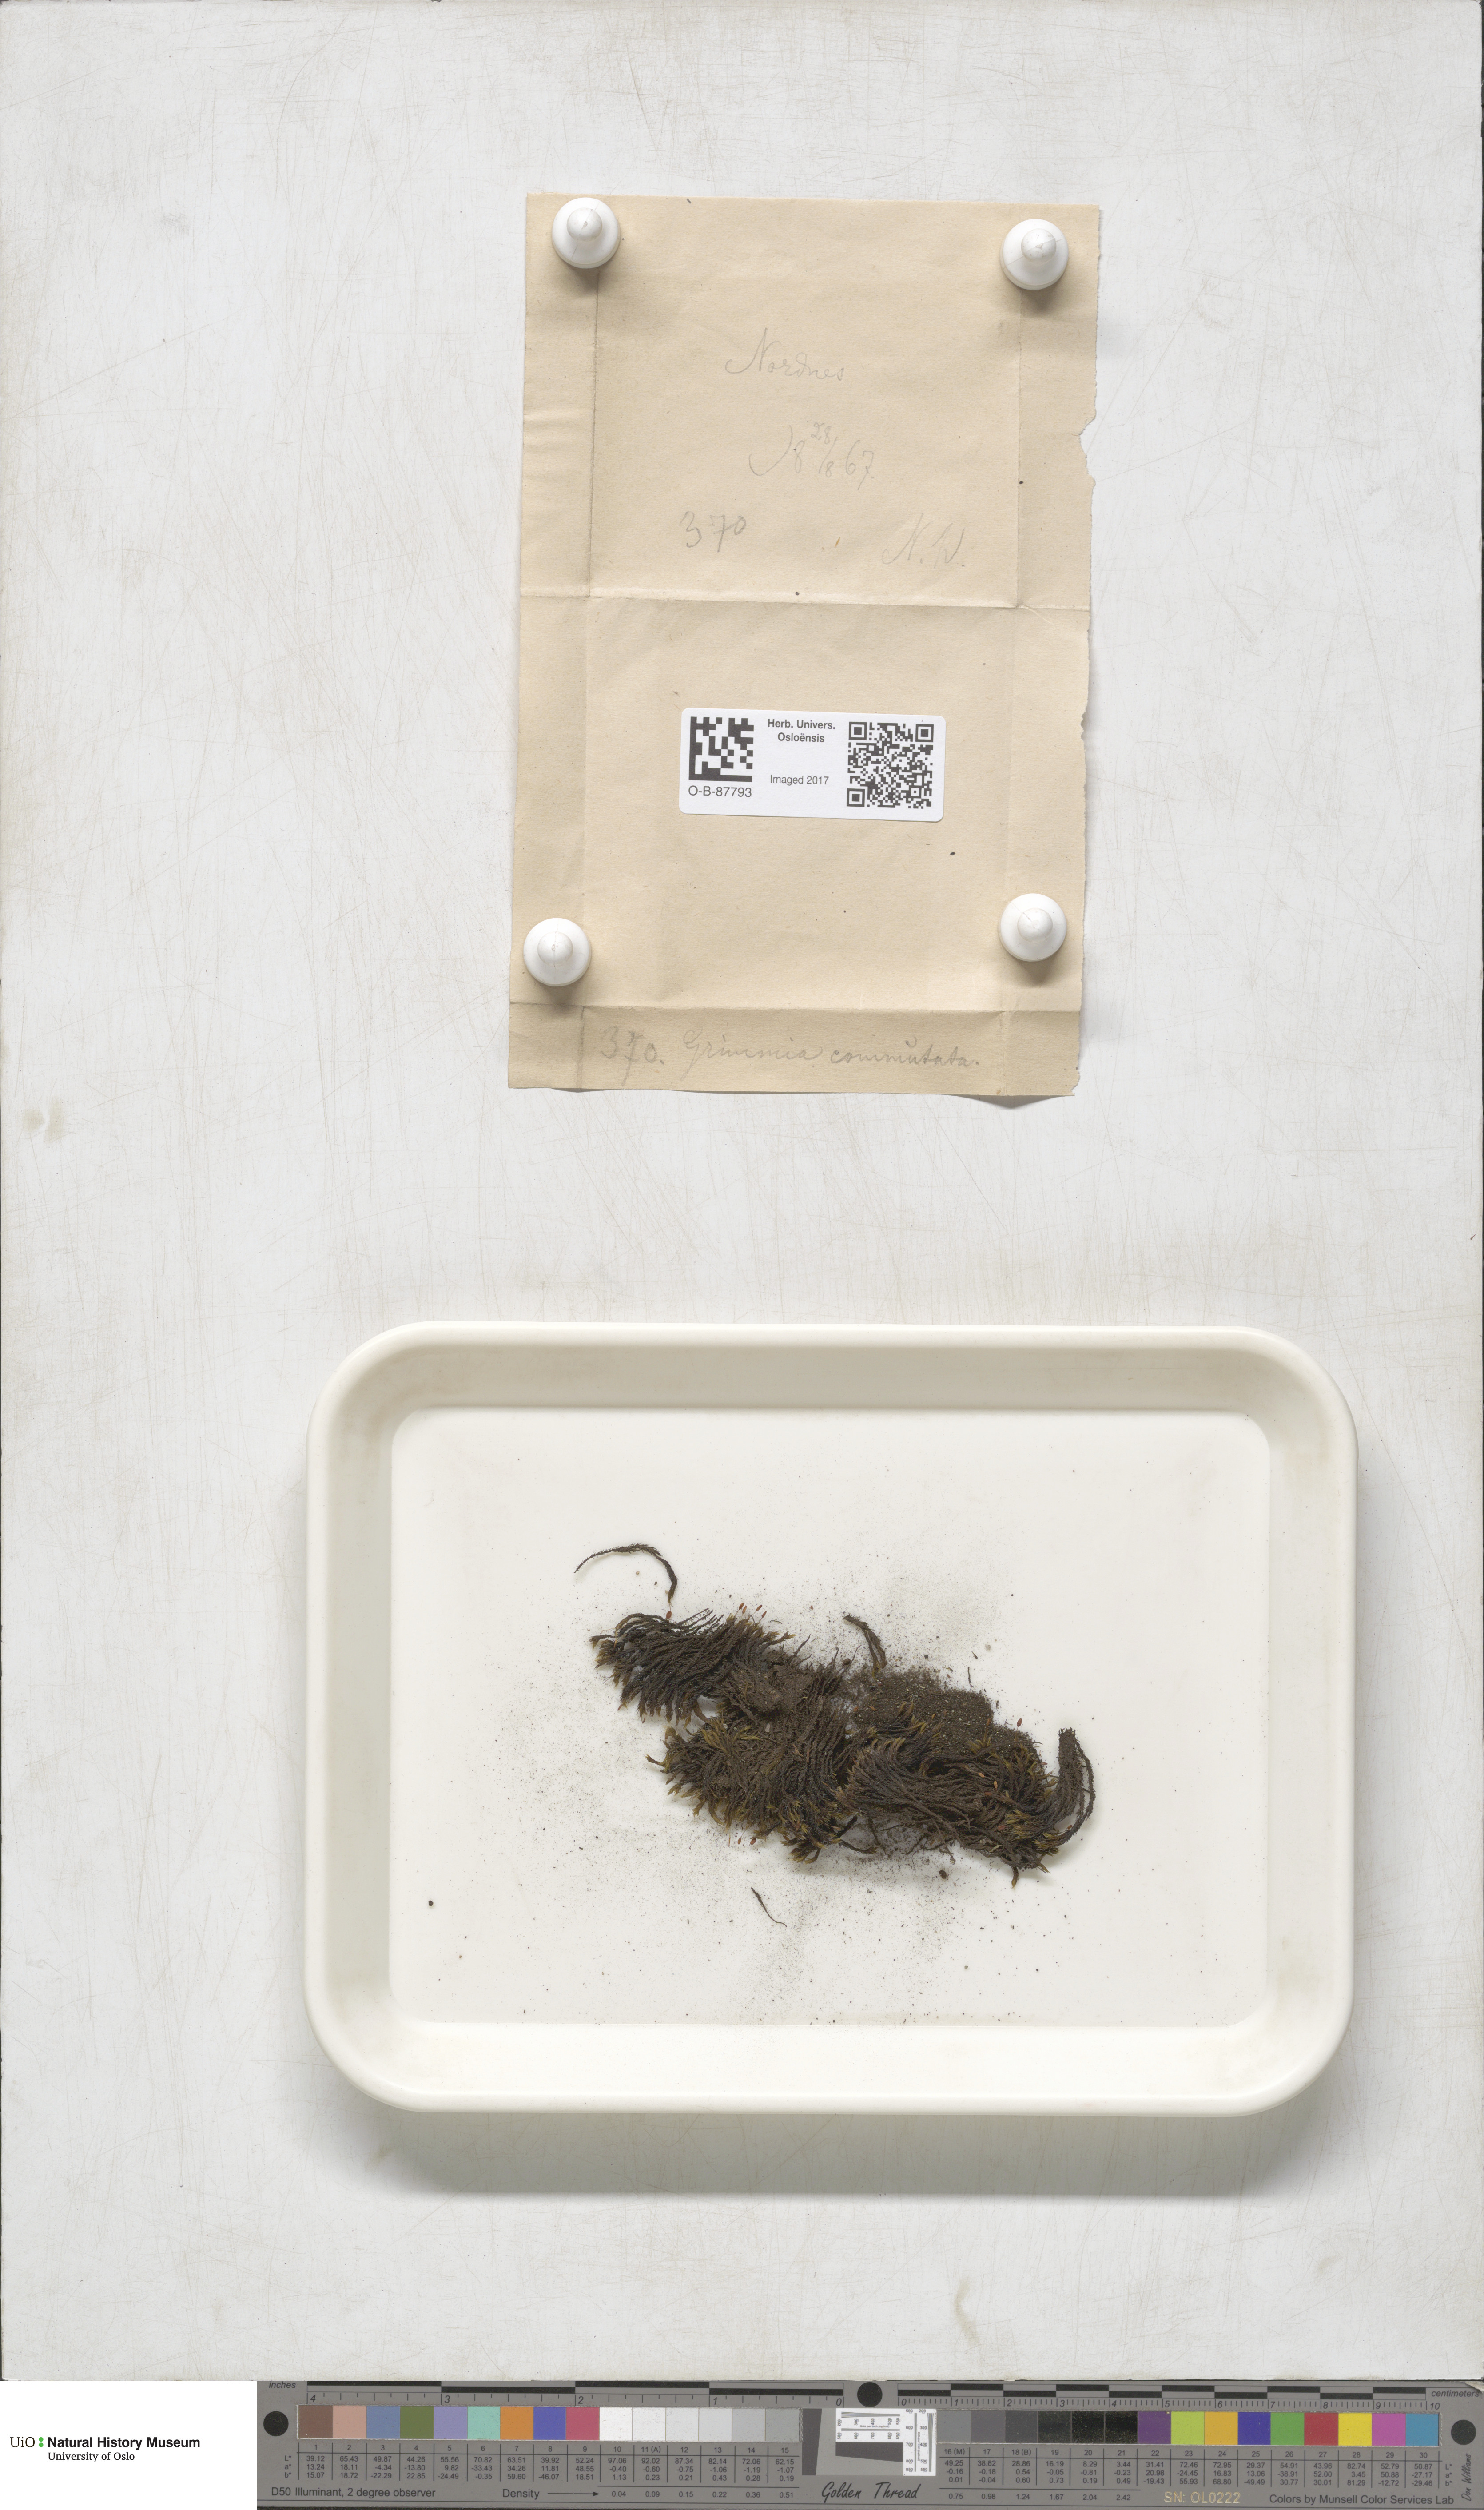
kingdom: Plantae
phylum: Bryophyta
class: Bryopsida
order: Grimmiales
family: Grimmiaceae
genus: Grimmia
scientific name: Grimmia ovalis
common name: Oval grimmia
